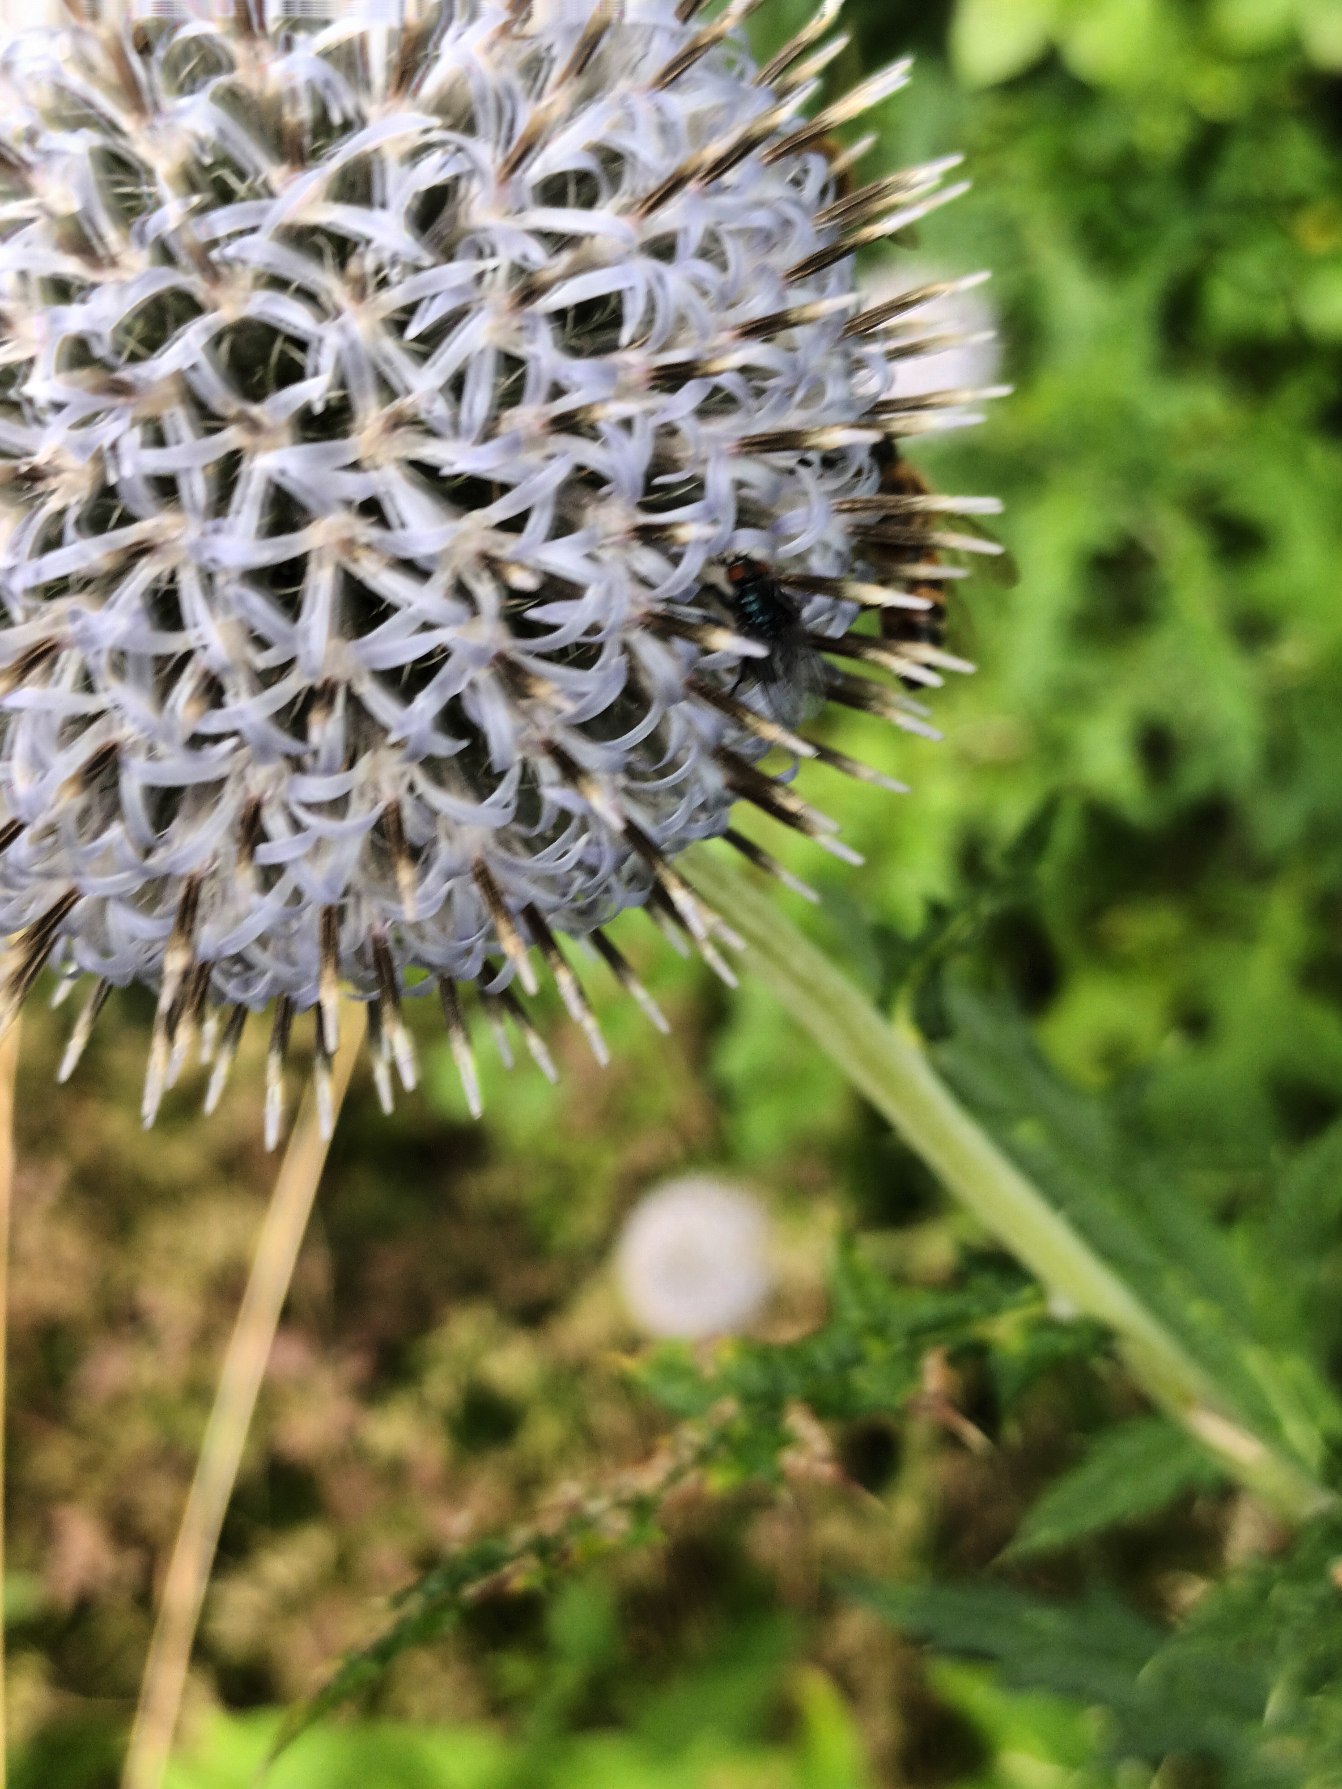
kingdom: Plantae
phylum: Tracheophyta
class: Magnoliopsida
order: Asterales
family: Asteraceae
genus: Echinops
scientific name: Echinops exaltatus
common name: Høj tidselkugle
